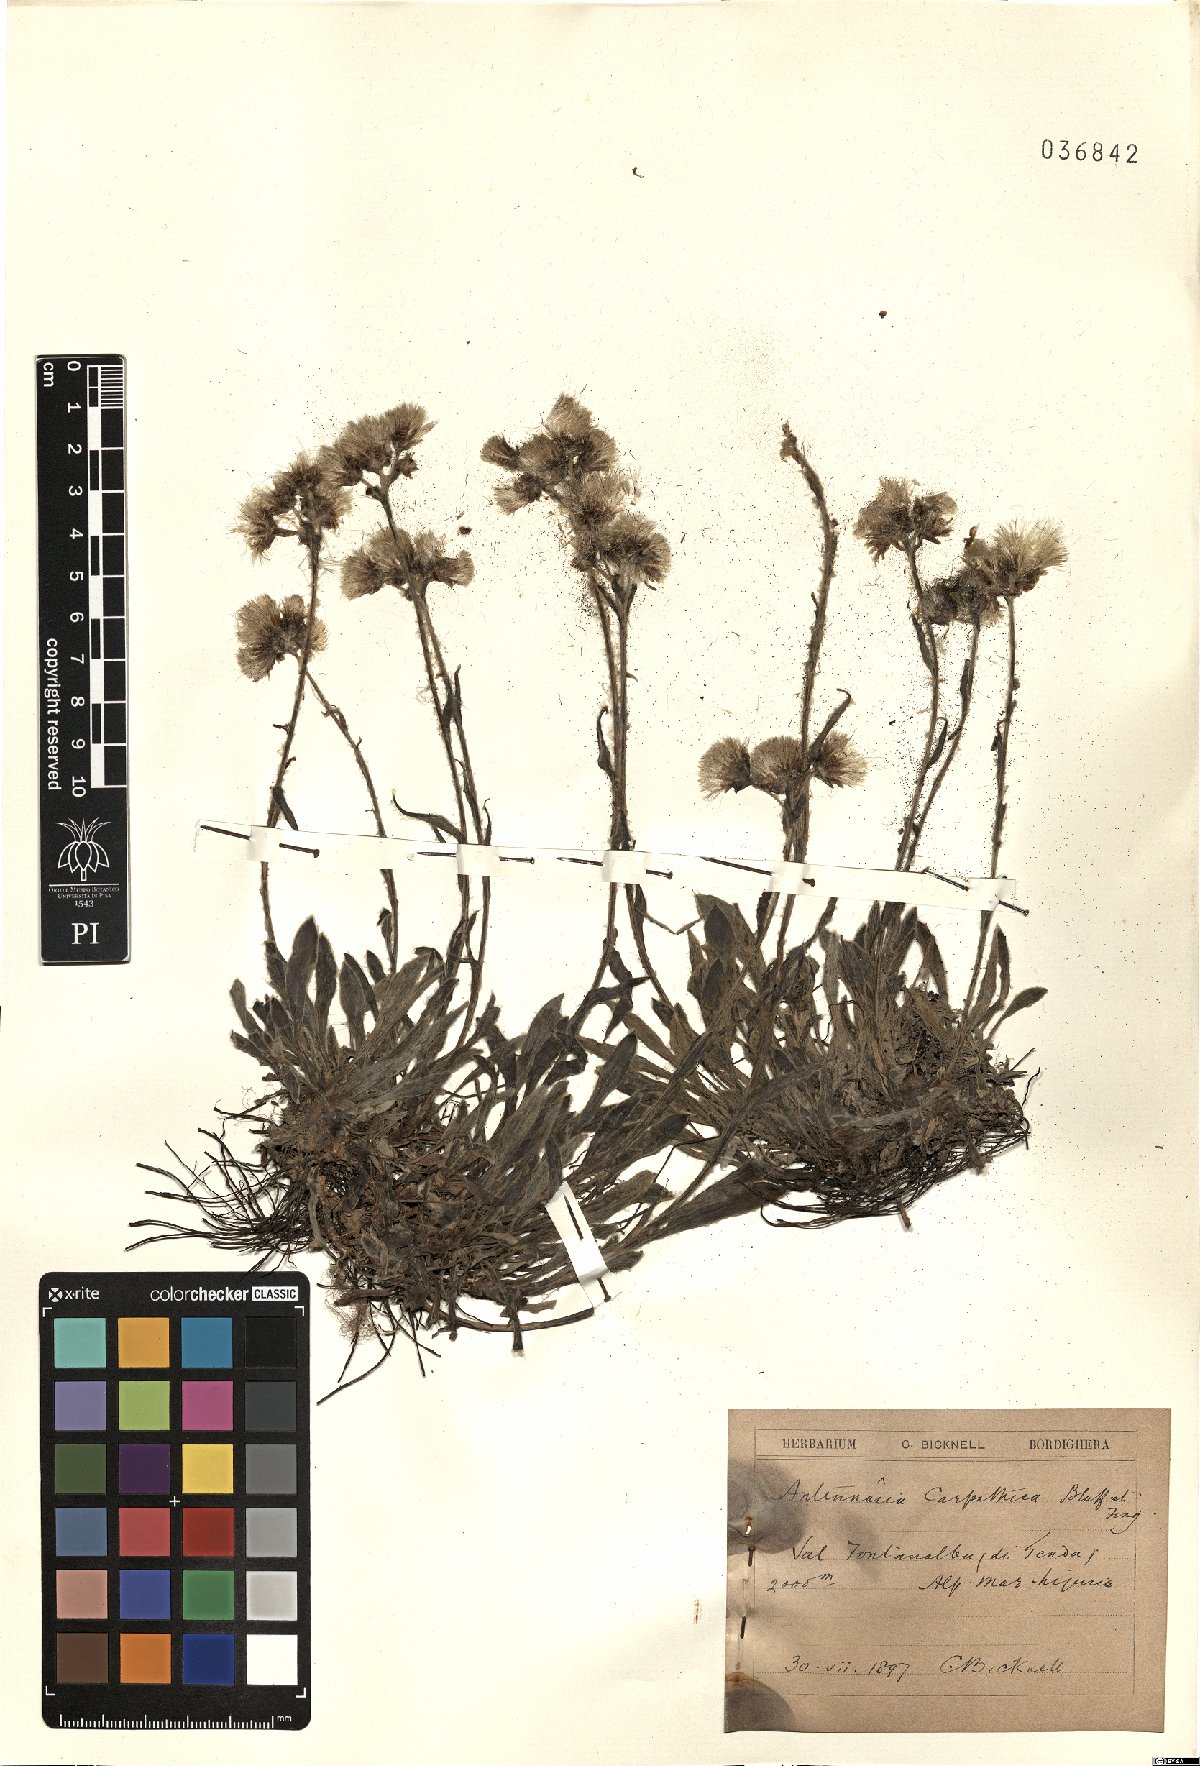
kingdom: Plantae
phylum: Tracheophyta
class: Magnoliopsida
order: Asterales
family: Asteraceae
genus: Antennaria
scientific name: Antennaria carpatica
